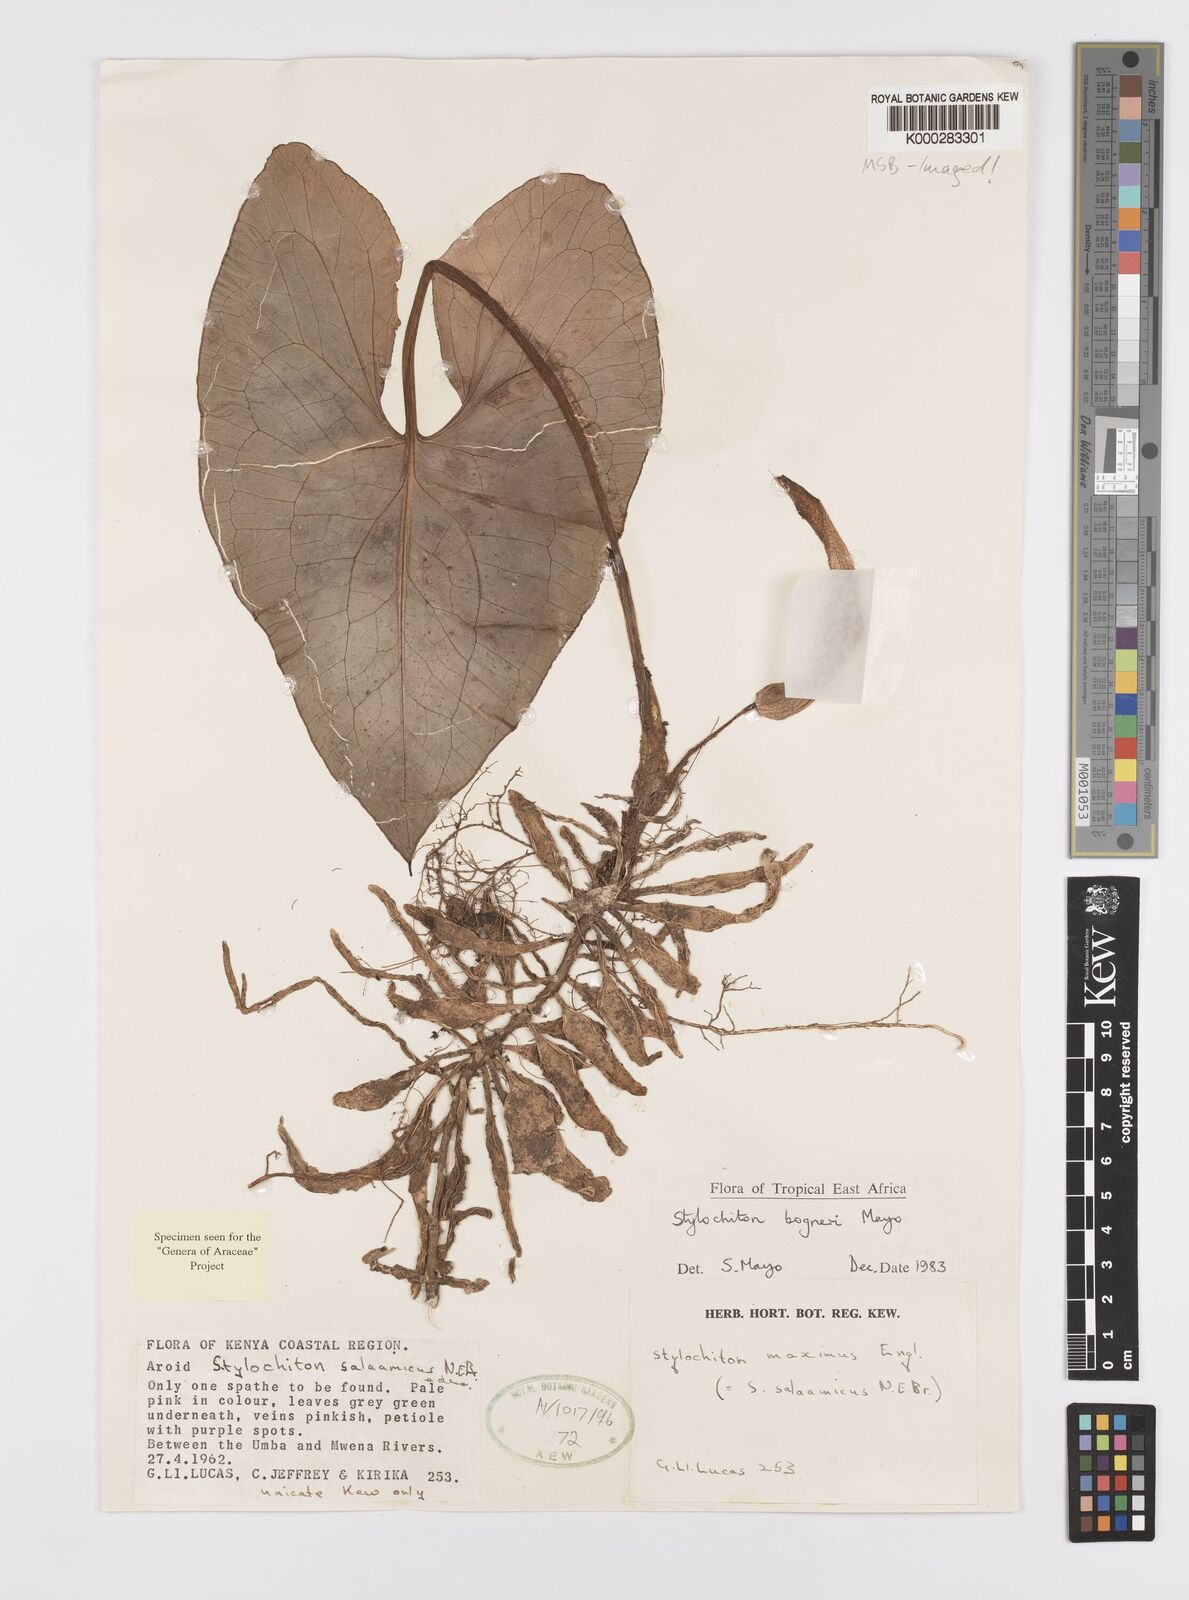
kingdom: Plantae
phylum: Tracheophyta
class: Liliopsida
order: Alismatales
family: Araceae
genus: Stylochaeton
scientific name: Stylochaeton bogneri
